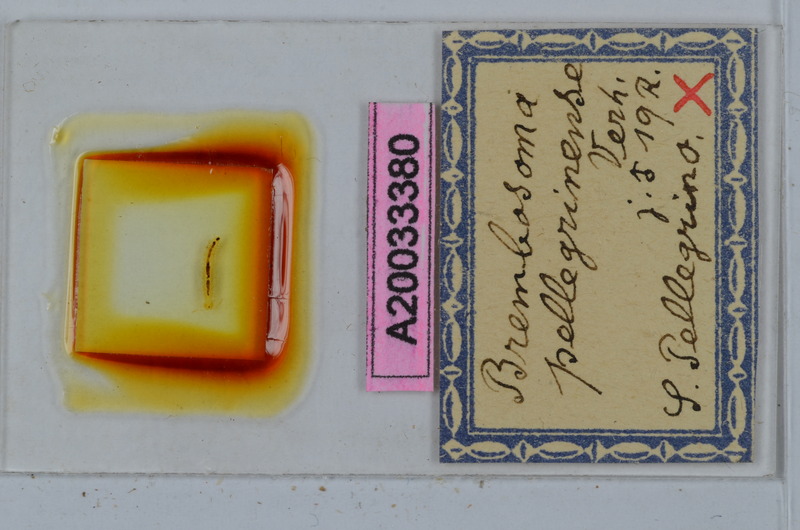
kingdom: Animalia
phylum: Arthropoda
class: Diplopoda
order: Polydesmida
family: Polydesmidae
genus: Brembosoma
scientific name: Brembosoma castagnolense
